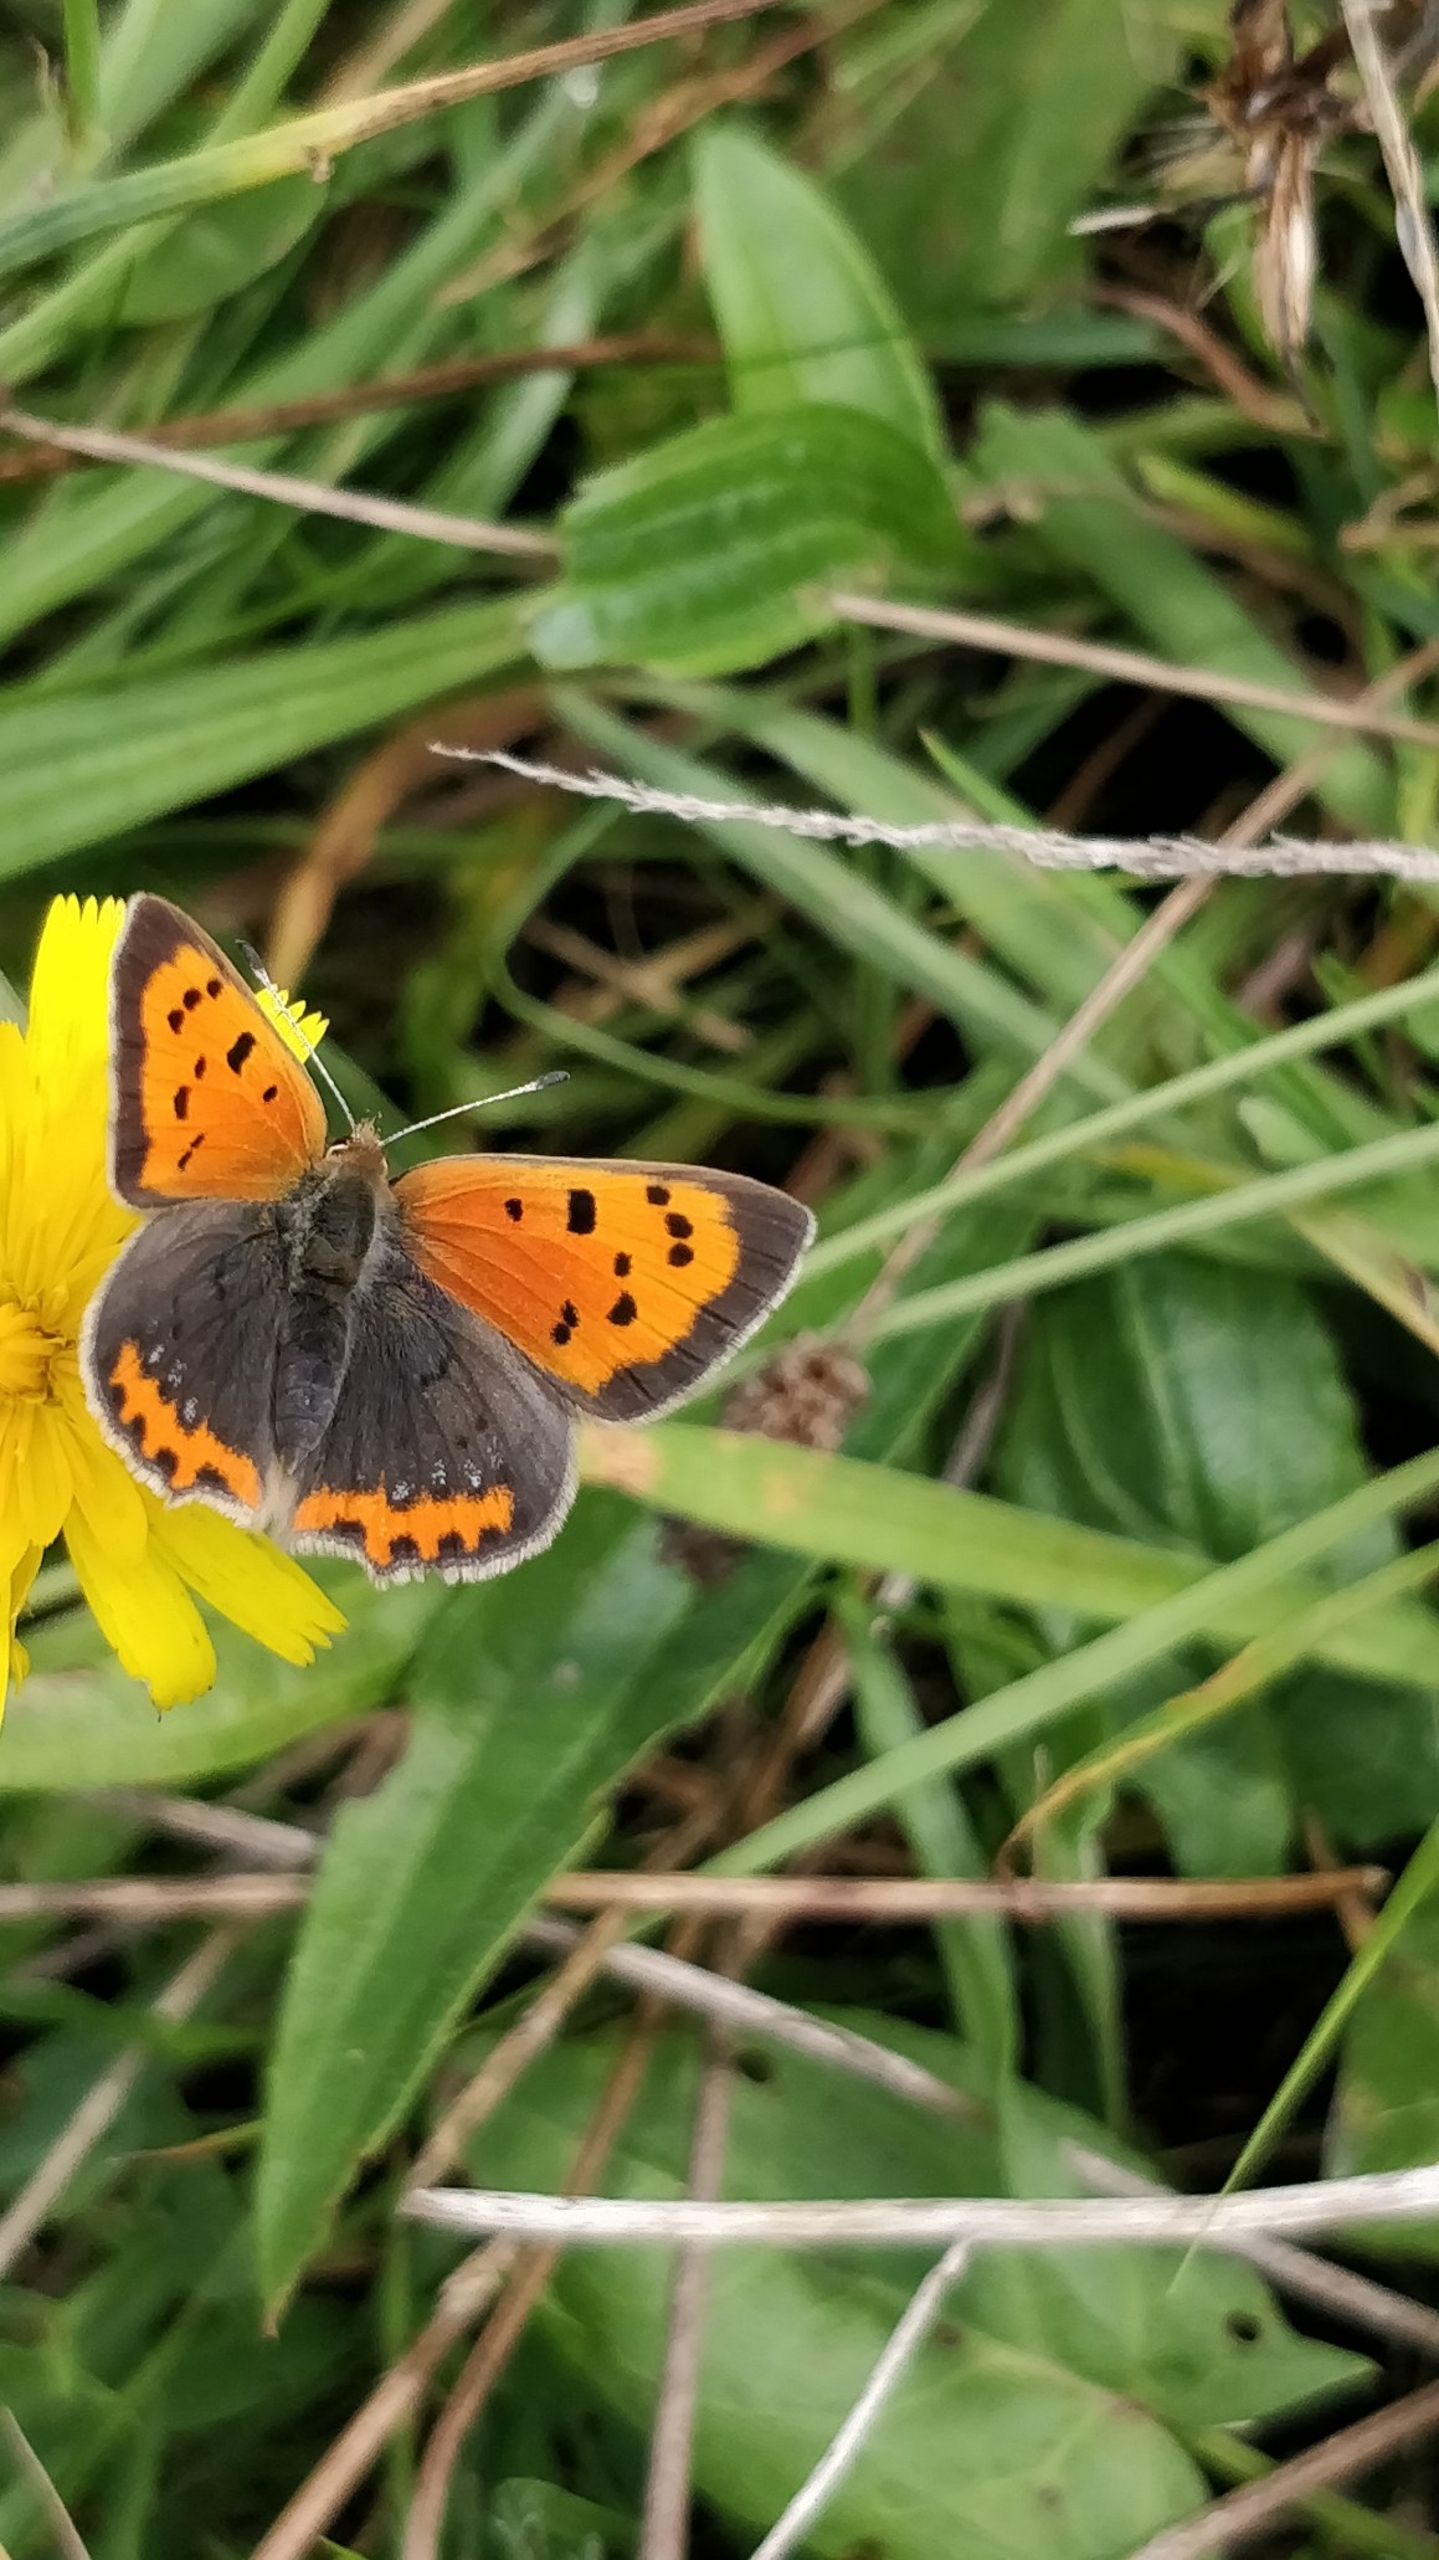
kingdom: Animalia
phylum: Arthropoda
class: Insecta
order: Lepidoptera
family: Lycaenidae
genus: Lycaena
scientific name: Lycaena phlaeas
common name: Lille ildfugl
